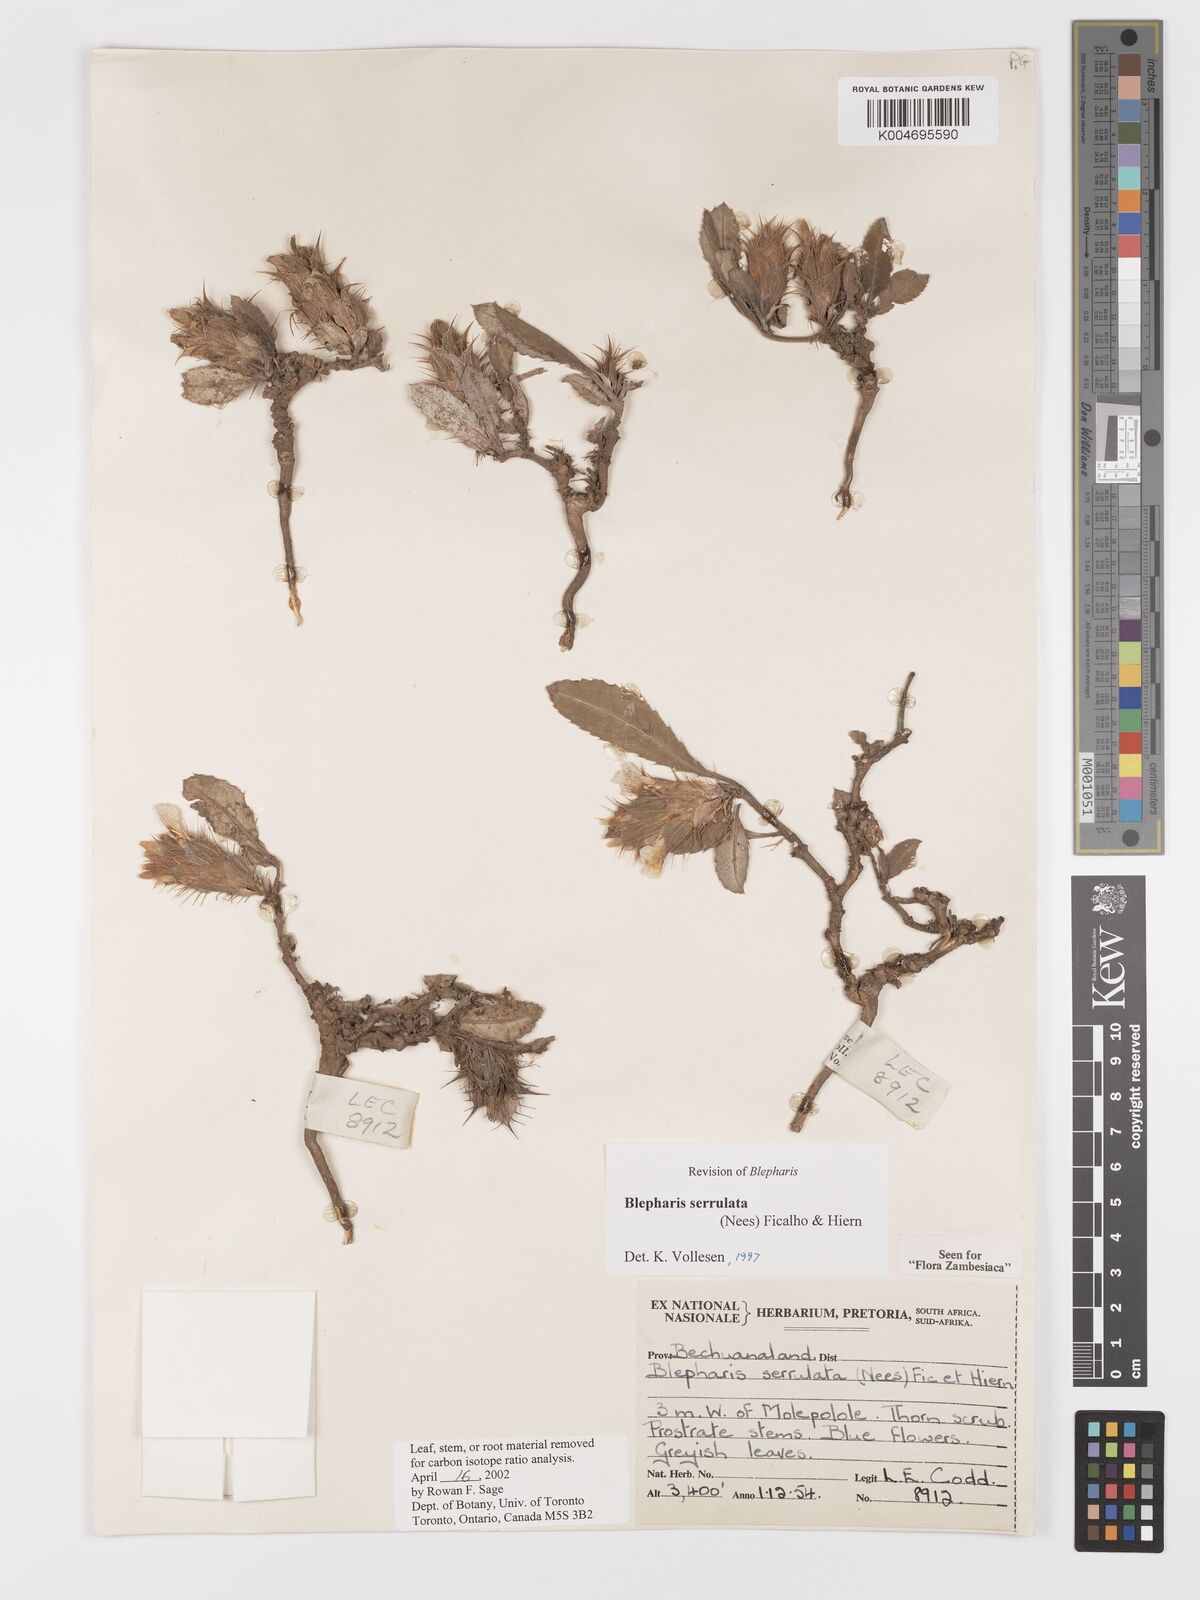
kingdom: Plantae
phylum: Tracheophyta
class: Magnoliopsida
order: Lamiales
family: Acanthaceae
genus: Blepharis
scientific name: Blepharis serrulata
